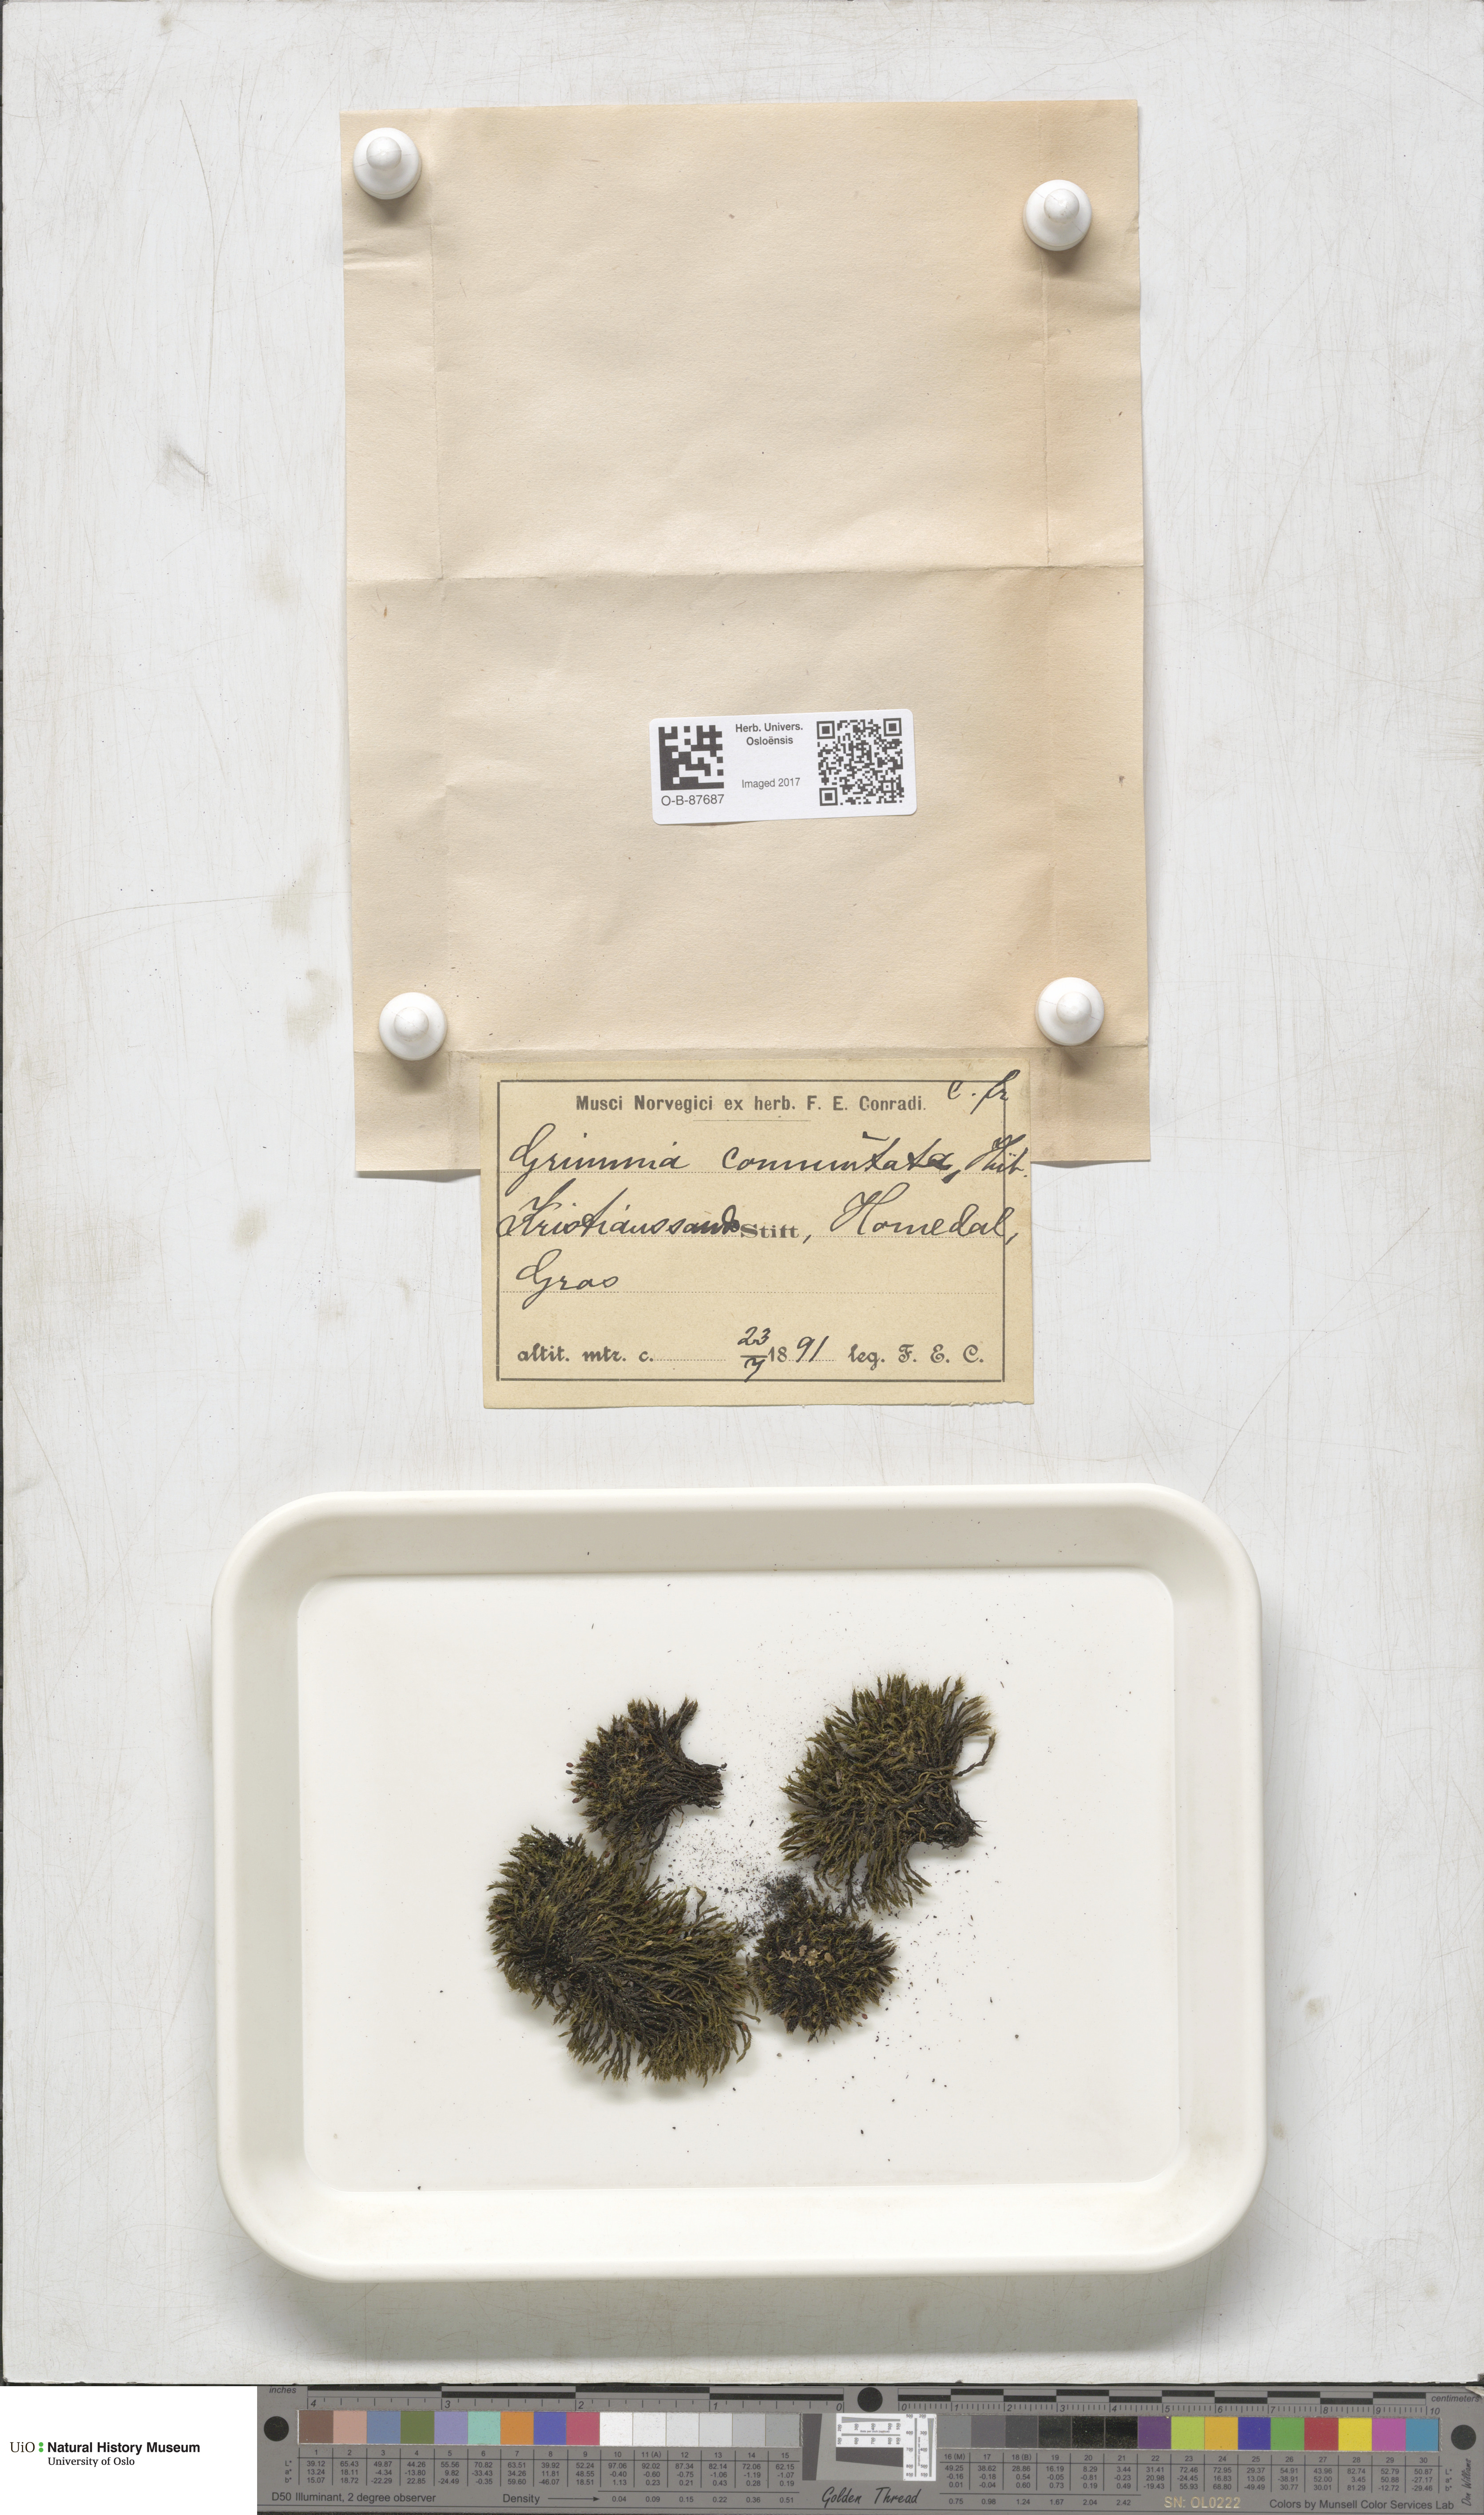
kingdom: Plantae
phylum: Bryophyta
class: Bryopsida
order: Grimmiales
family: Grimmiaceae
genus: Grimmia
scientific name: Grimmia ovalis
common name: Oval grimmia
